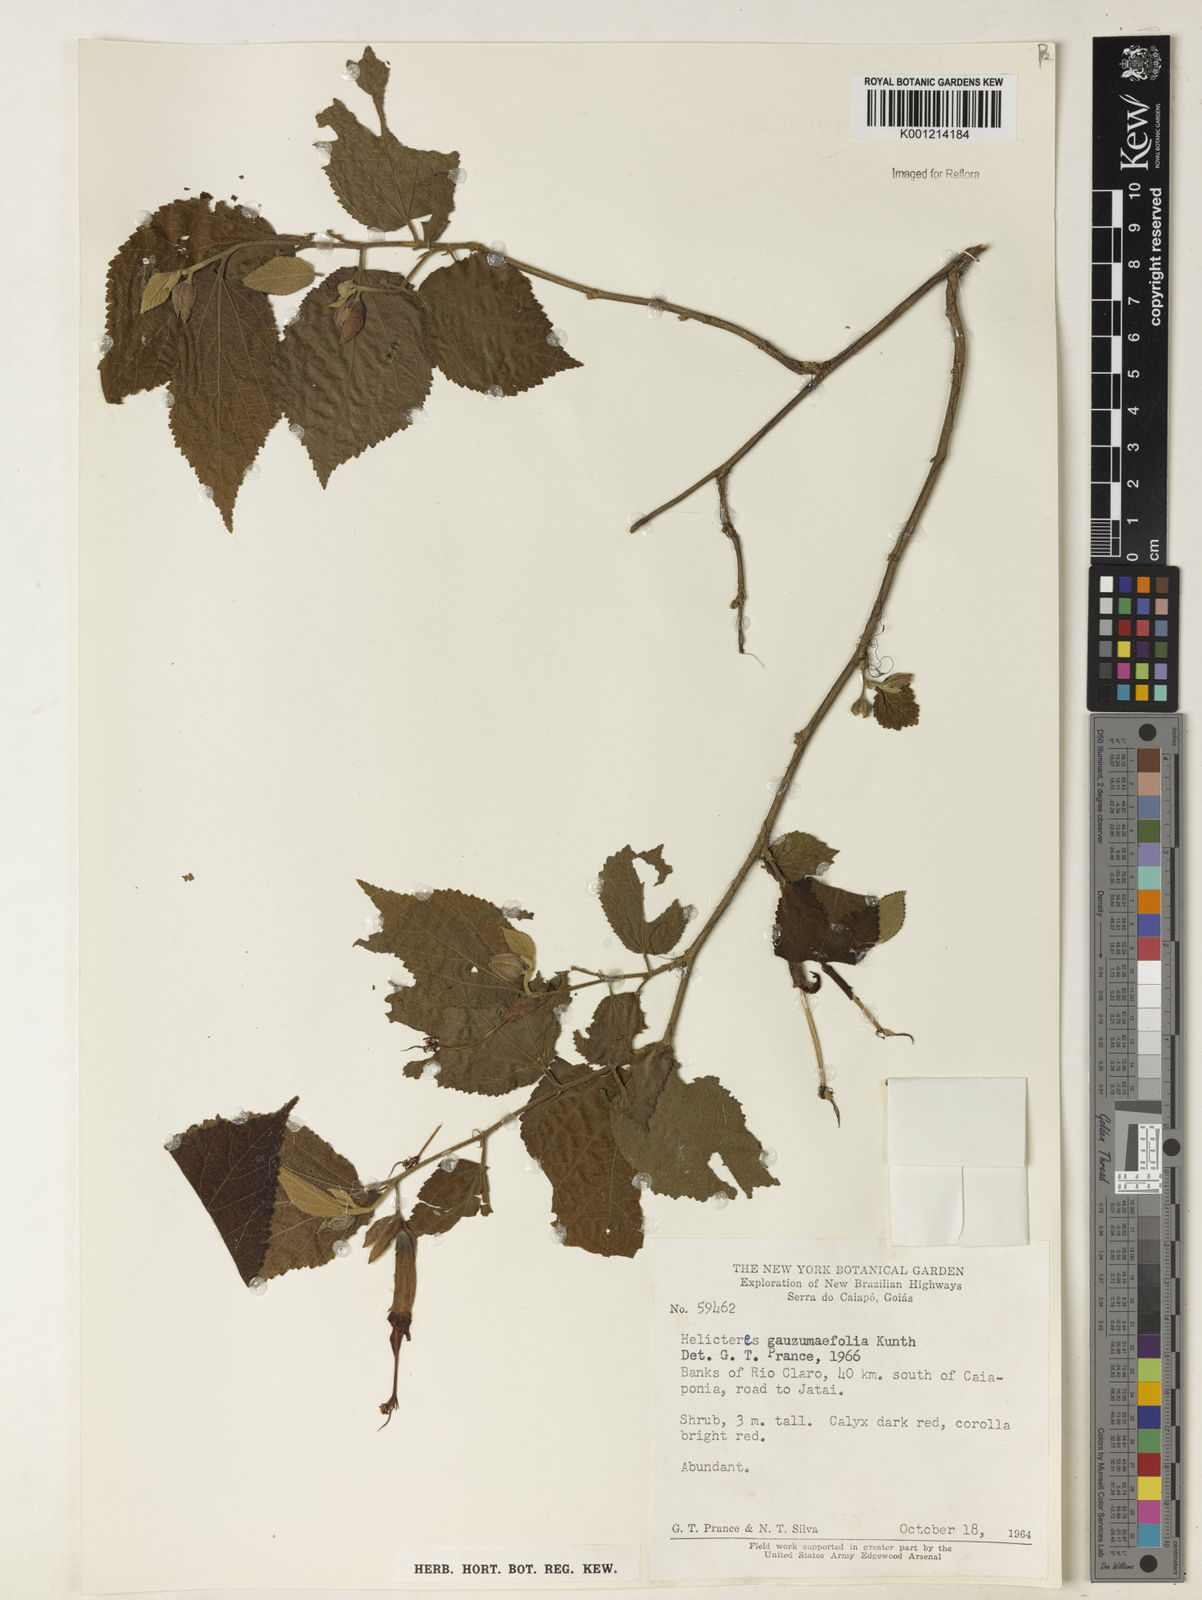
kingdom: Plantae
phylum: Tracheophyta
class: Magnoliopsida
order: Malvales
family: Malvaceae
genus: Helicteres
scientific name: Helicteres guazumifolia
